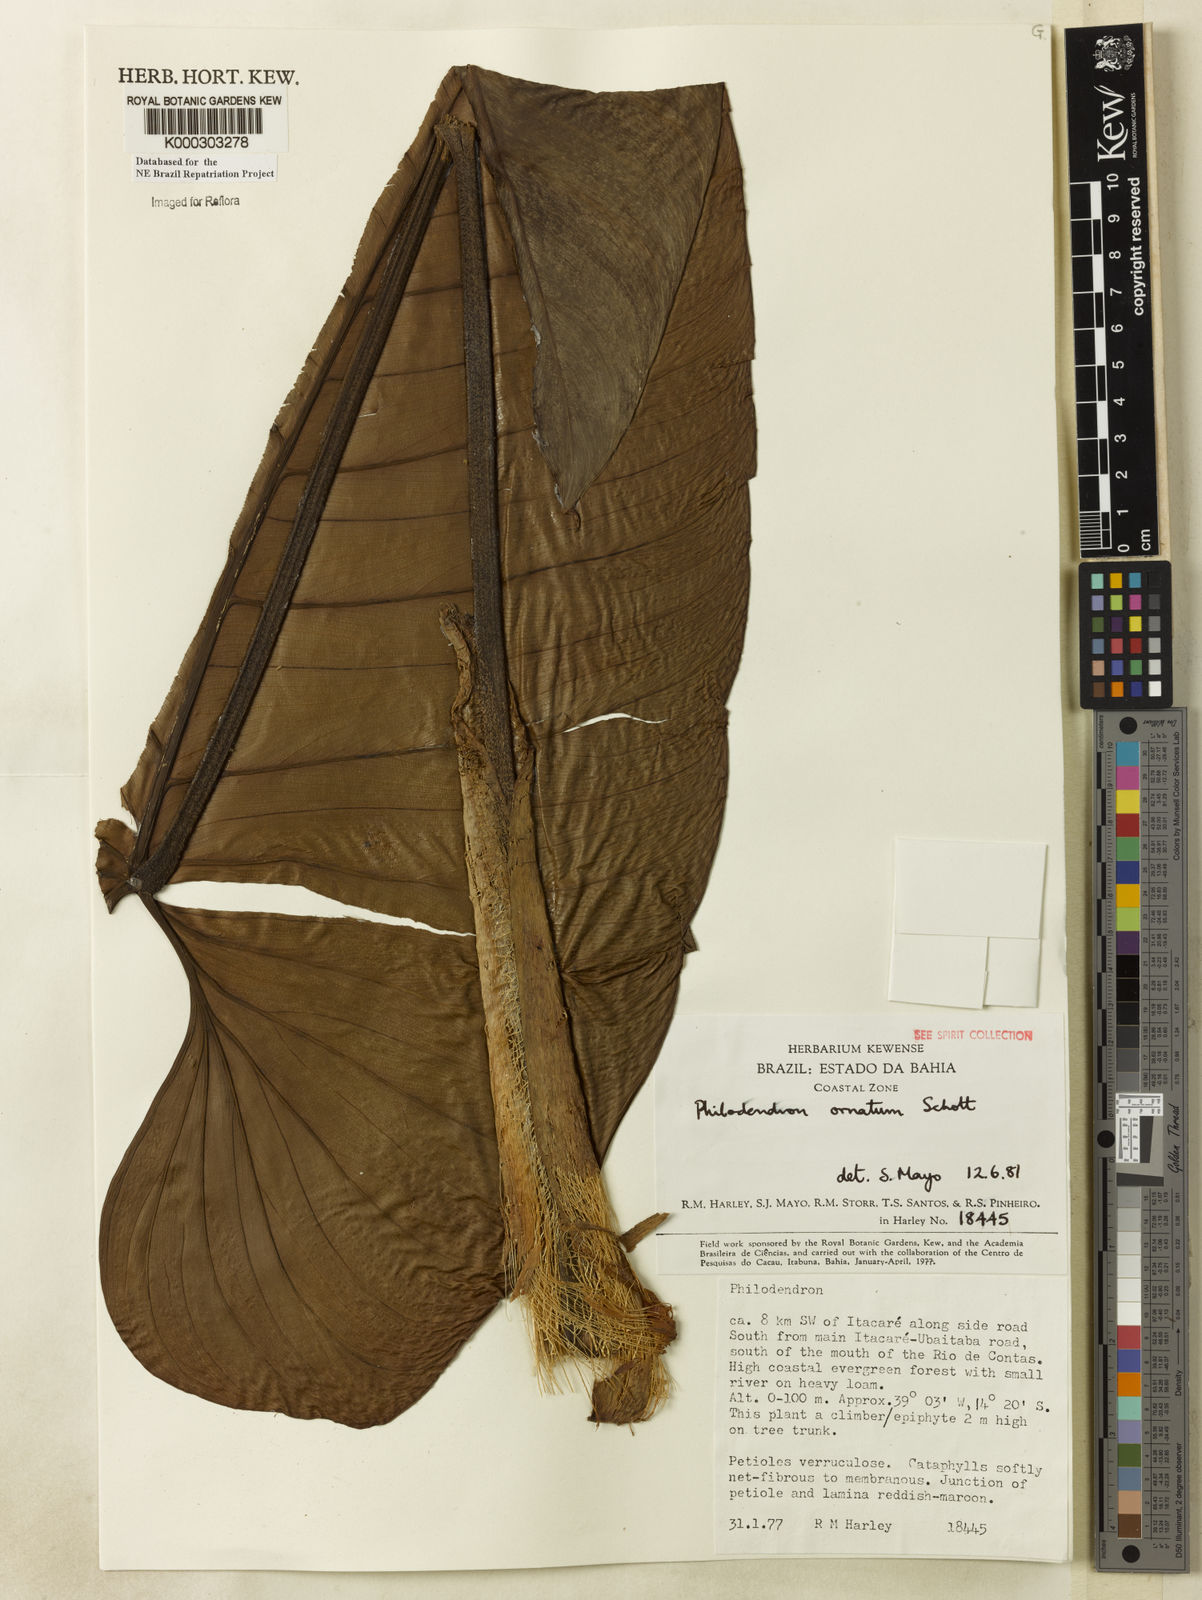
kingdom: Plantae
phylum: Tracheophyta
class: Liliopsida
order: Alismatales
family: Araceae
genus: Philodendron
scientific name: Philodendron ornatum
